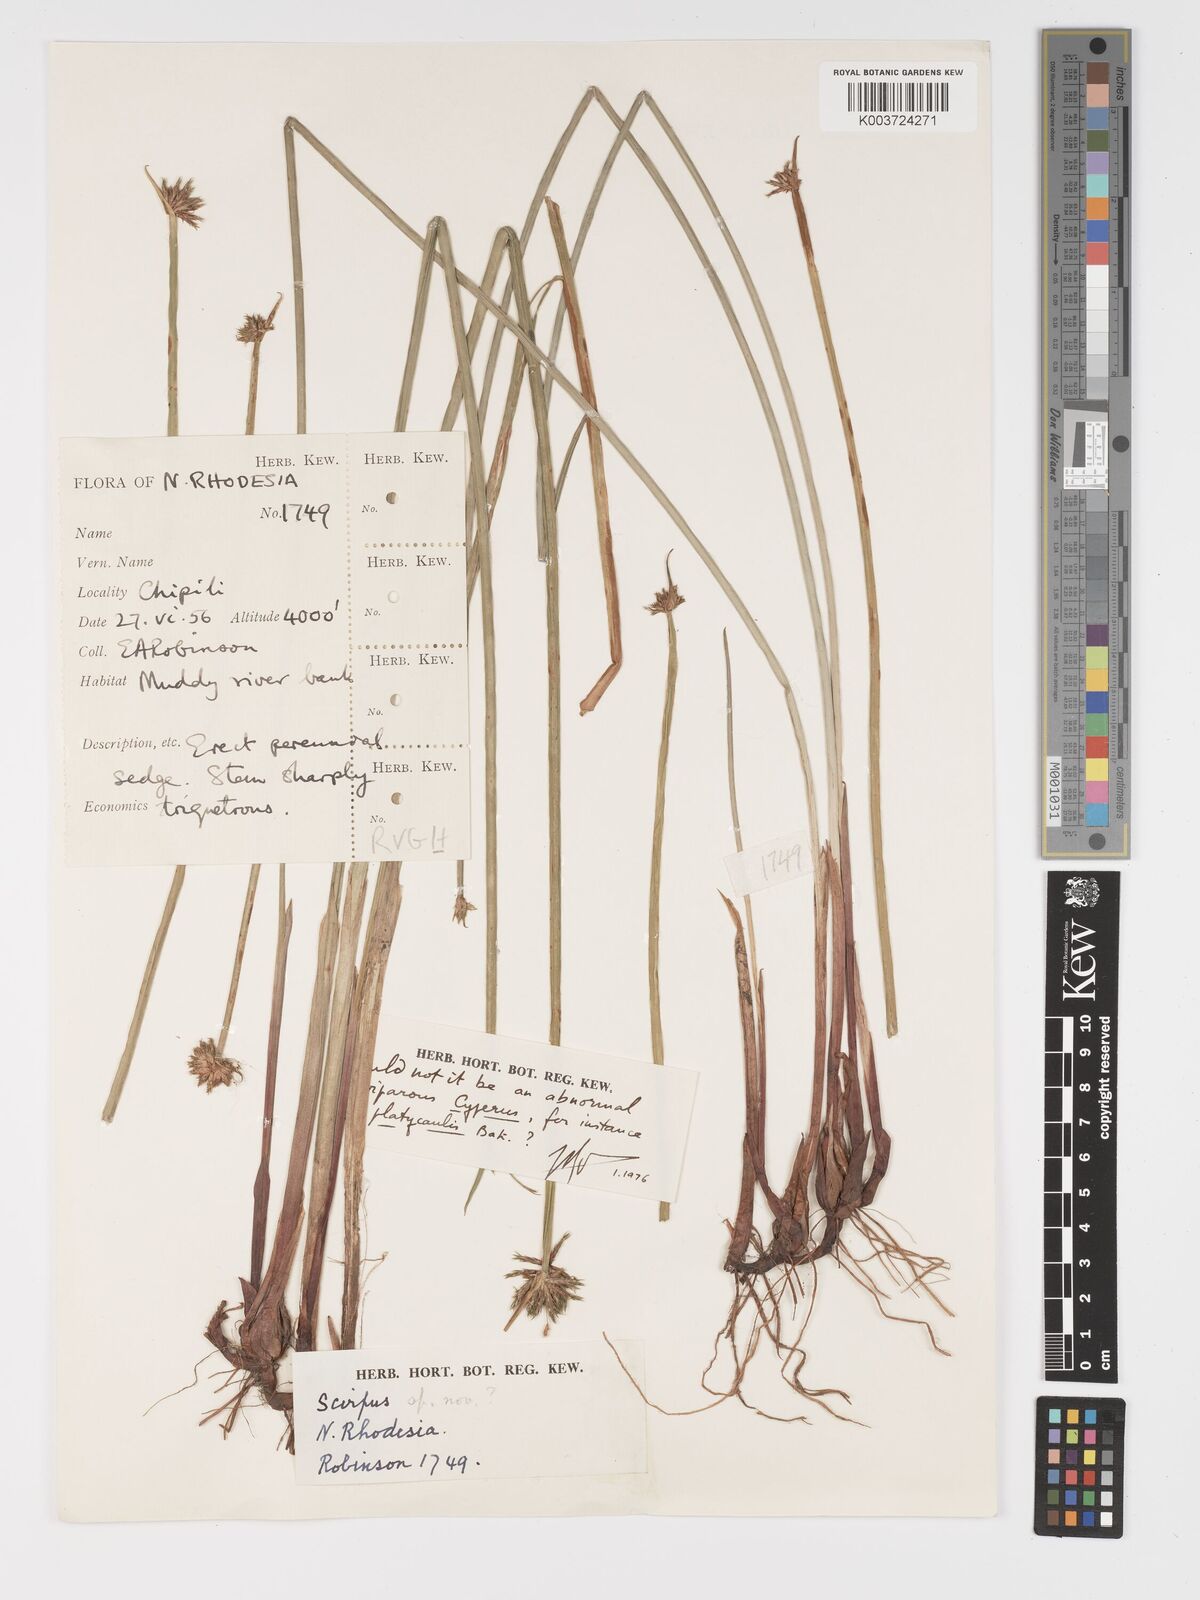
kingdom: Plantae
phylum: Tracheophyta
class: Liliopsida
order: Poales
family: Cyperaceae
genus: Cyperus
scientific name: Cyperus
